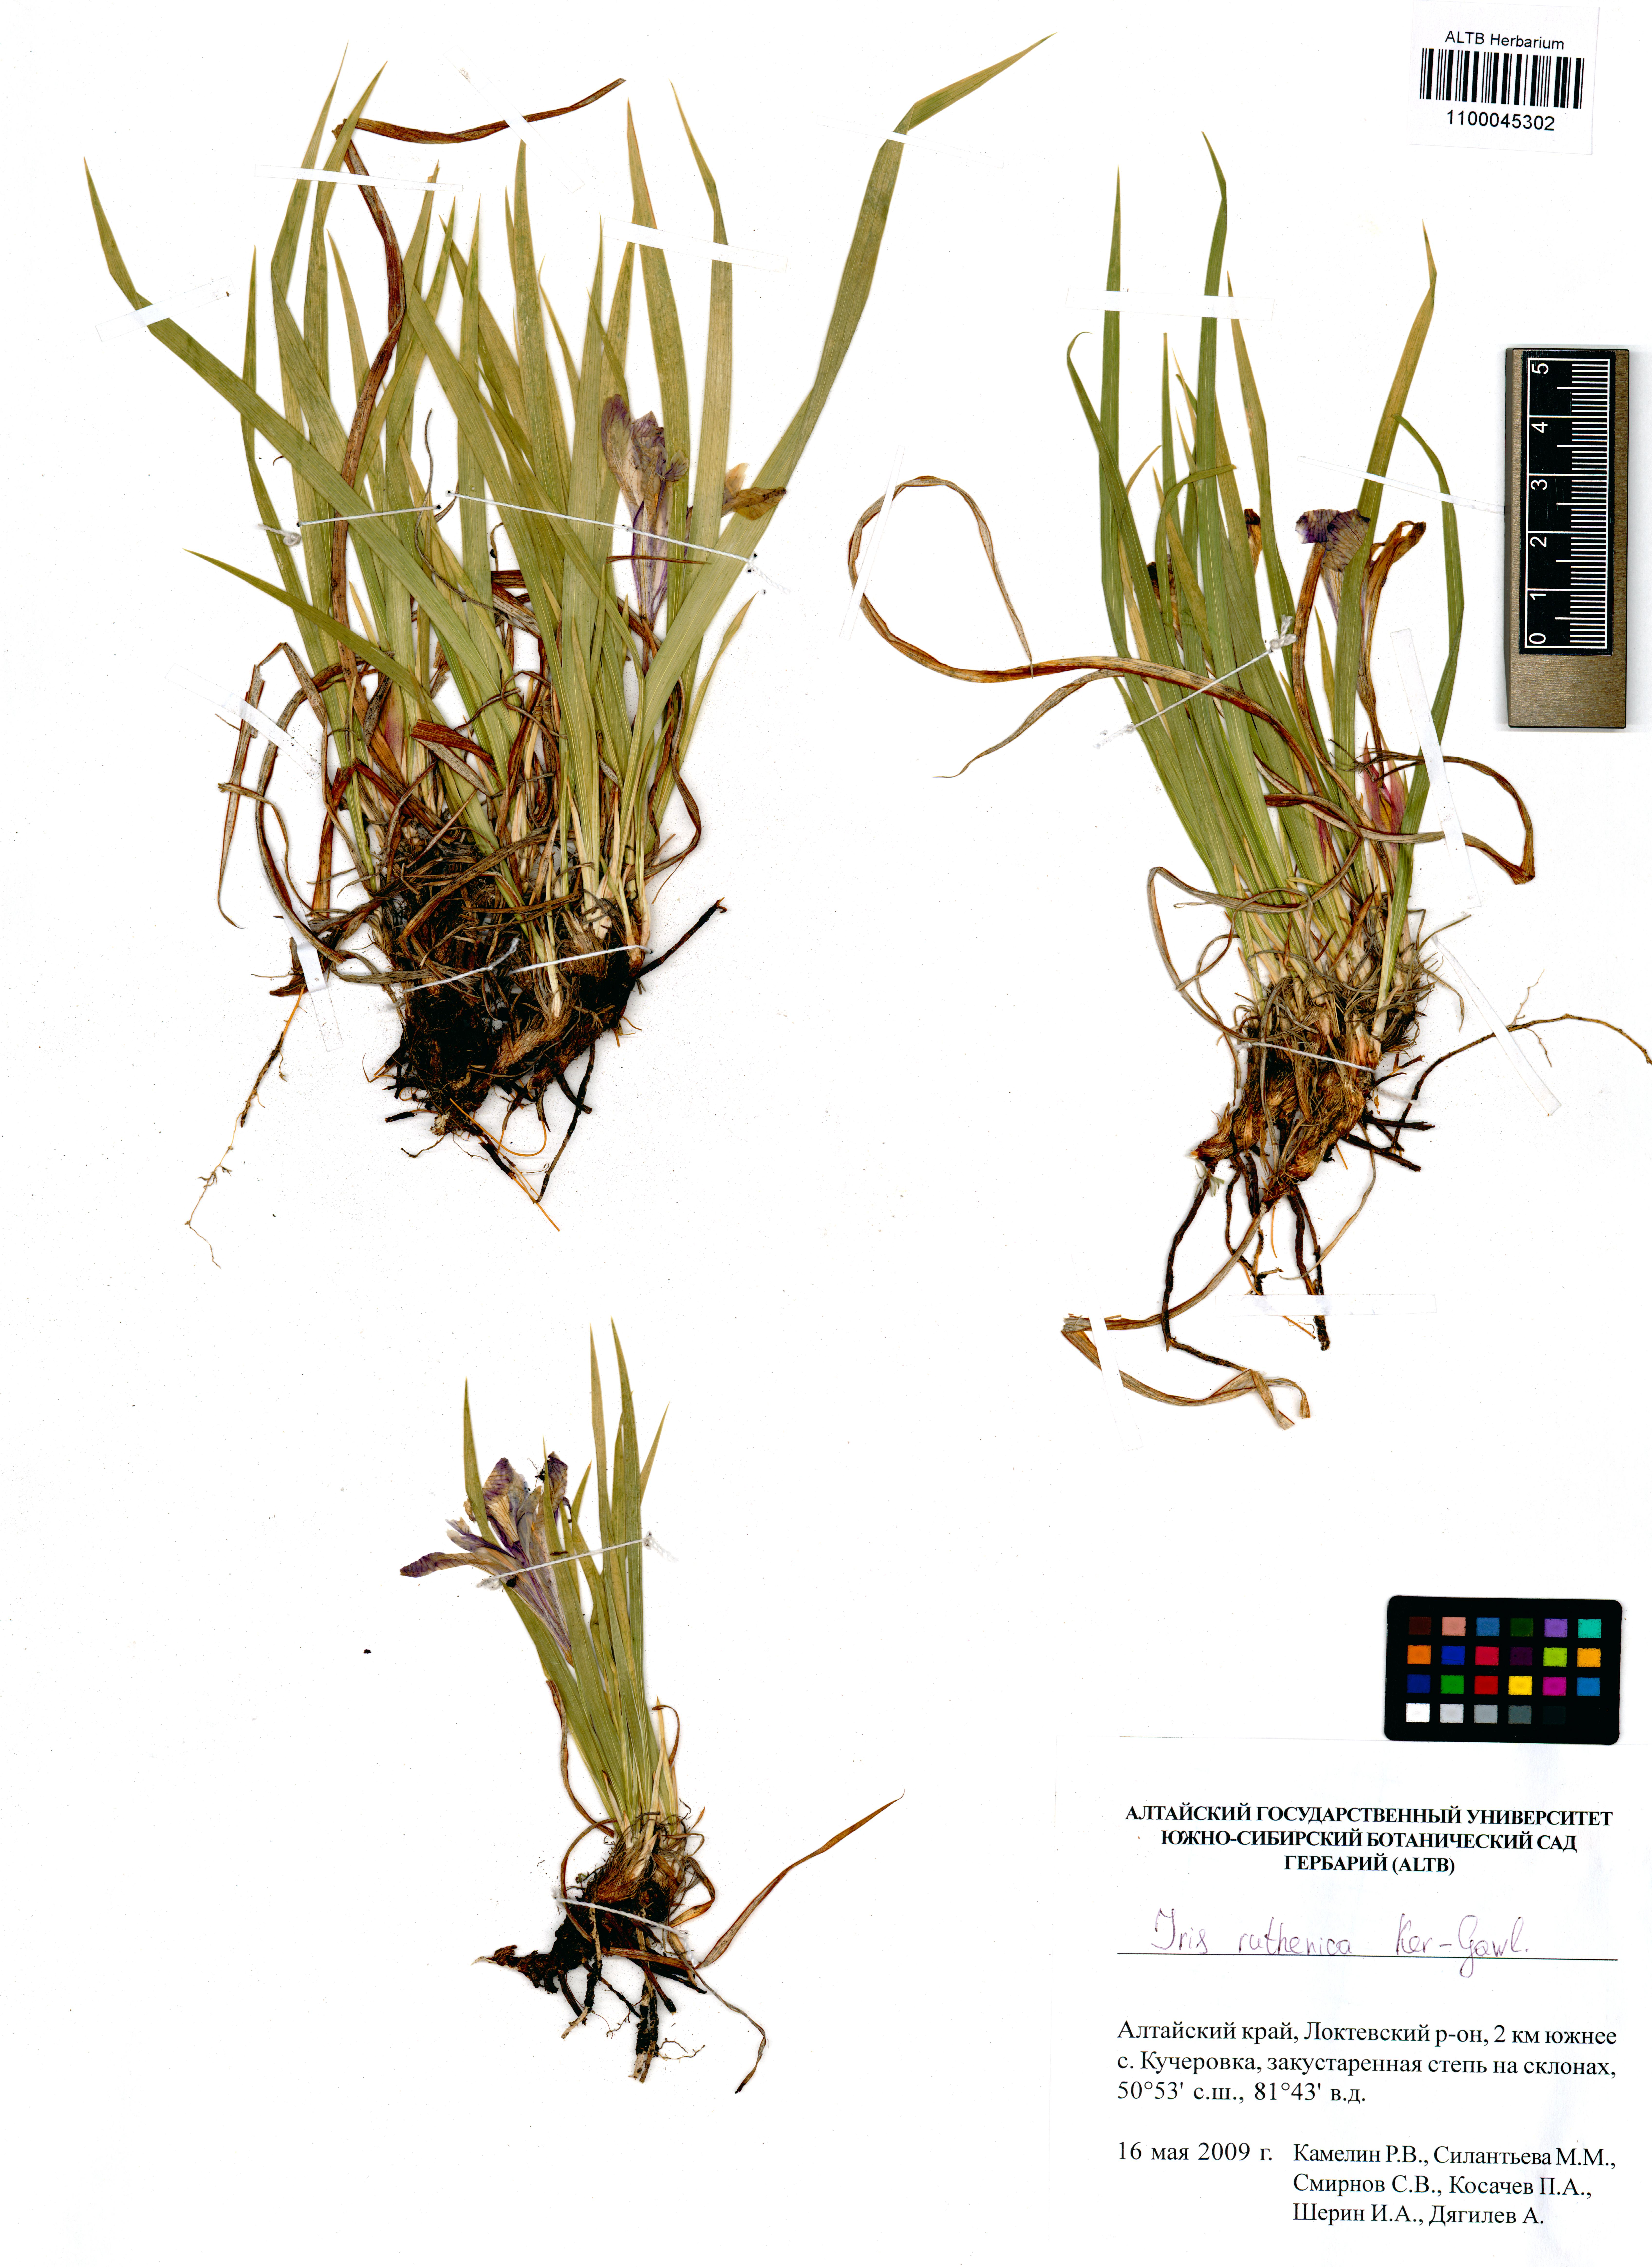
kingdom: Plantae
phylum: Tracheophyta
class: Liliopsida
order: Asparagales
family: Iridaceae
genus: Iris
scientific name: Iris ruthenica
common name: Purple-bract iris
